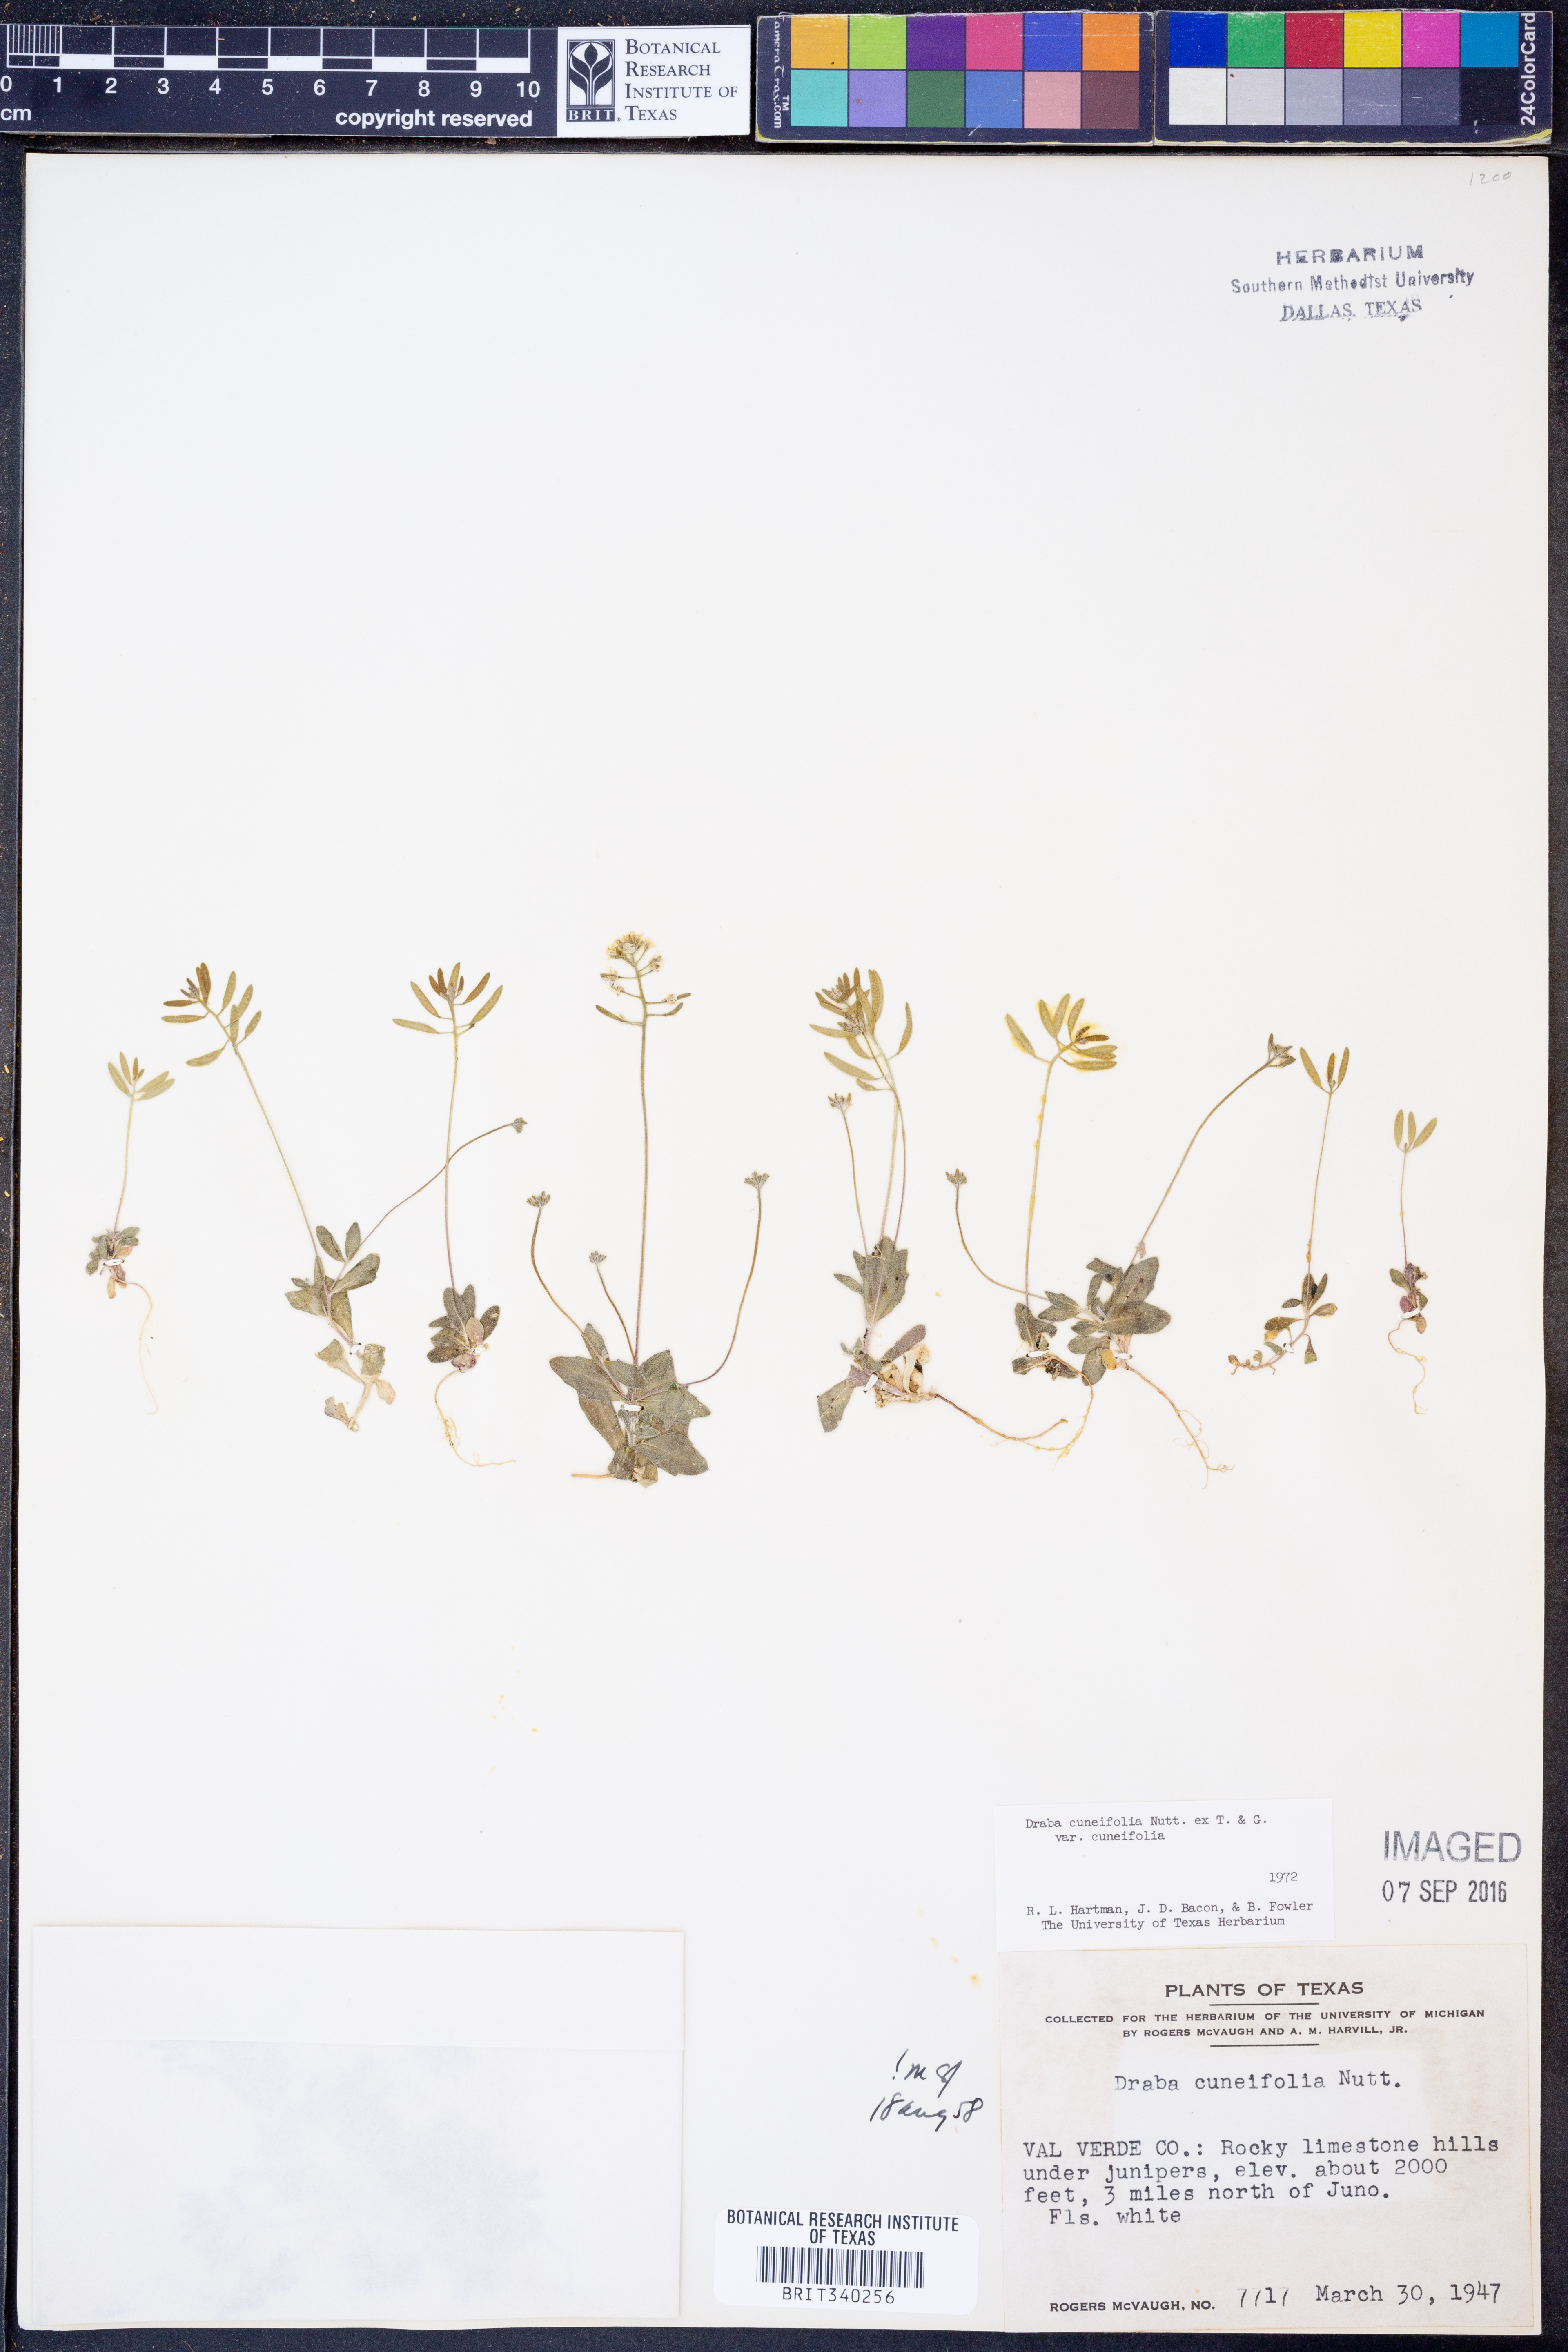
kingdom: Plantae
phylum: Tracheophyta
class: Magnoliopsida
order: Brassicales
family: Brassicaceae
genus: Tomostima
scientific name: Tomostima cuneifolia
